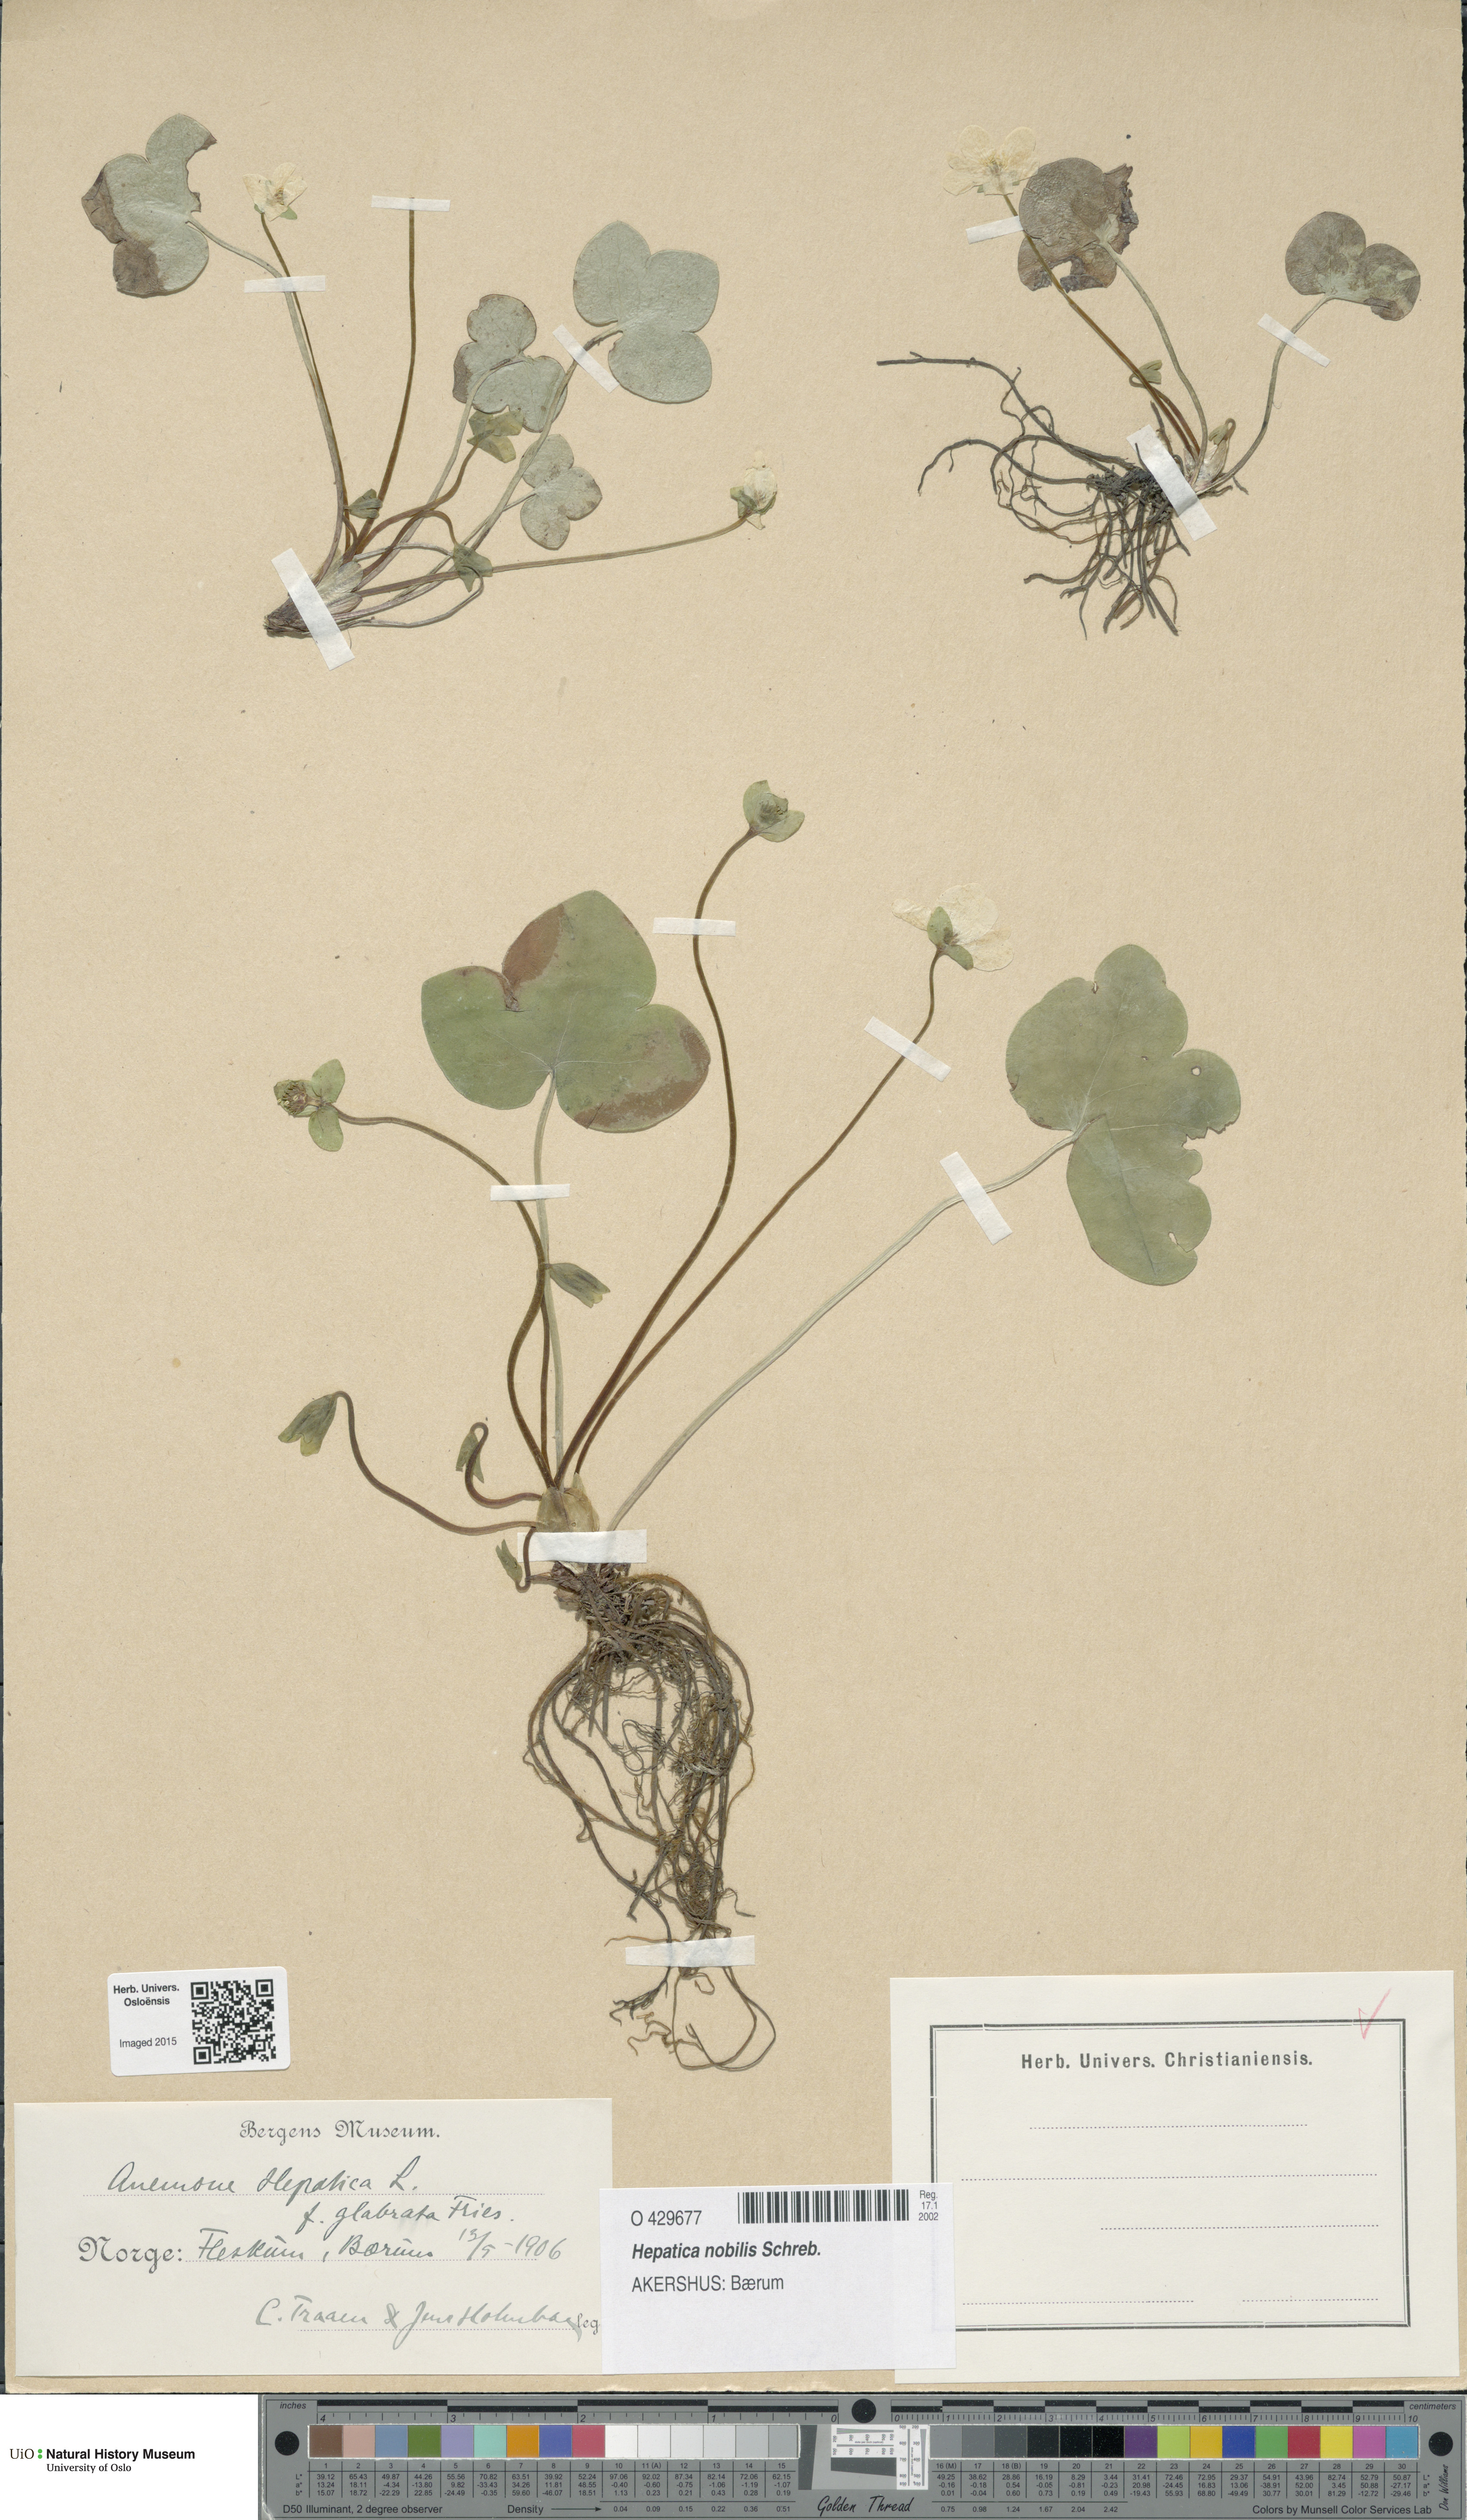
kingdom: Plantae
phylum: Tracheophyta
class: Magnoliopsida
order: Ranunculales
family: Ranunculaceae
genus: Hepatica
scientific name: Hepatica nobilis
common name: Liverleaf
